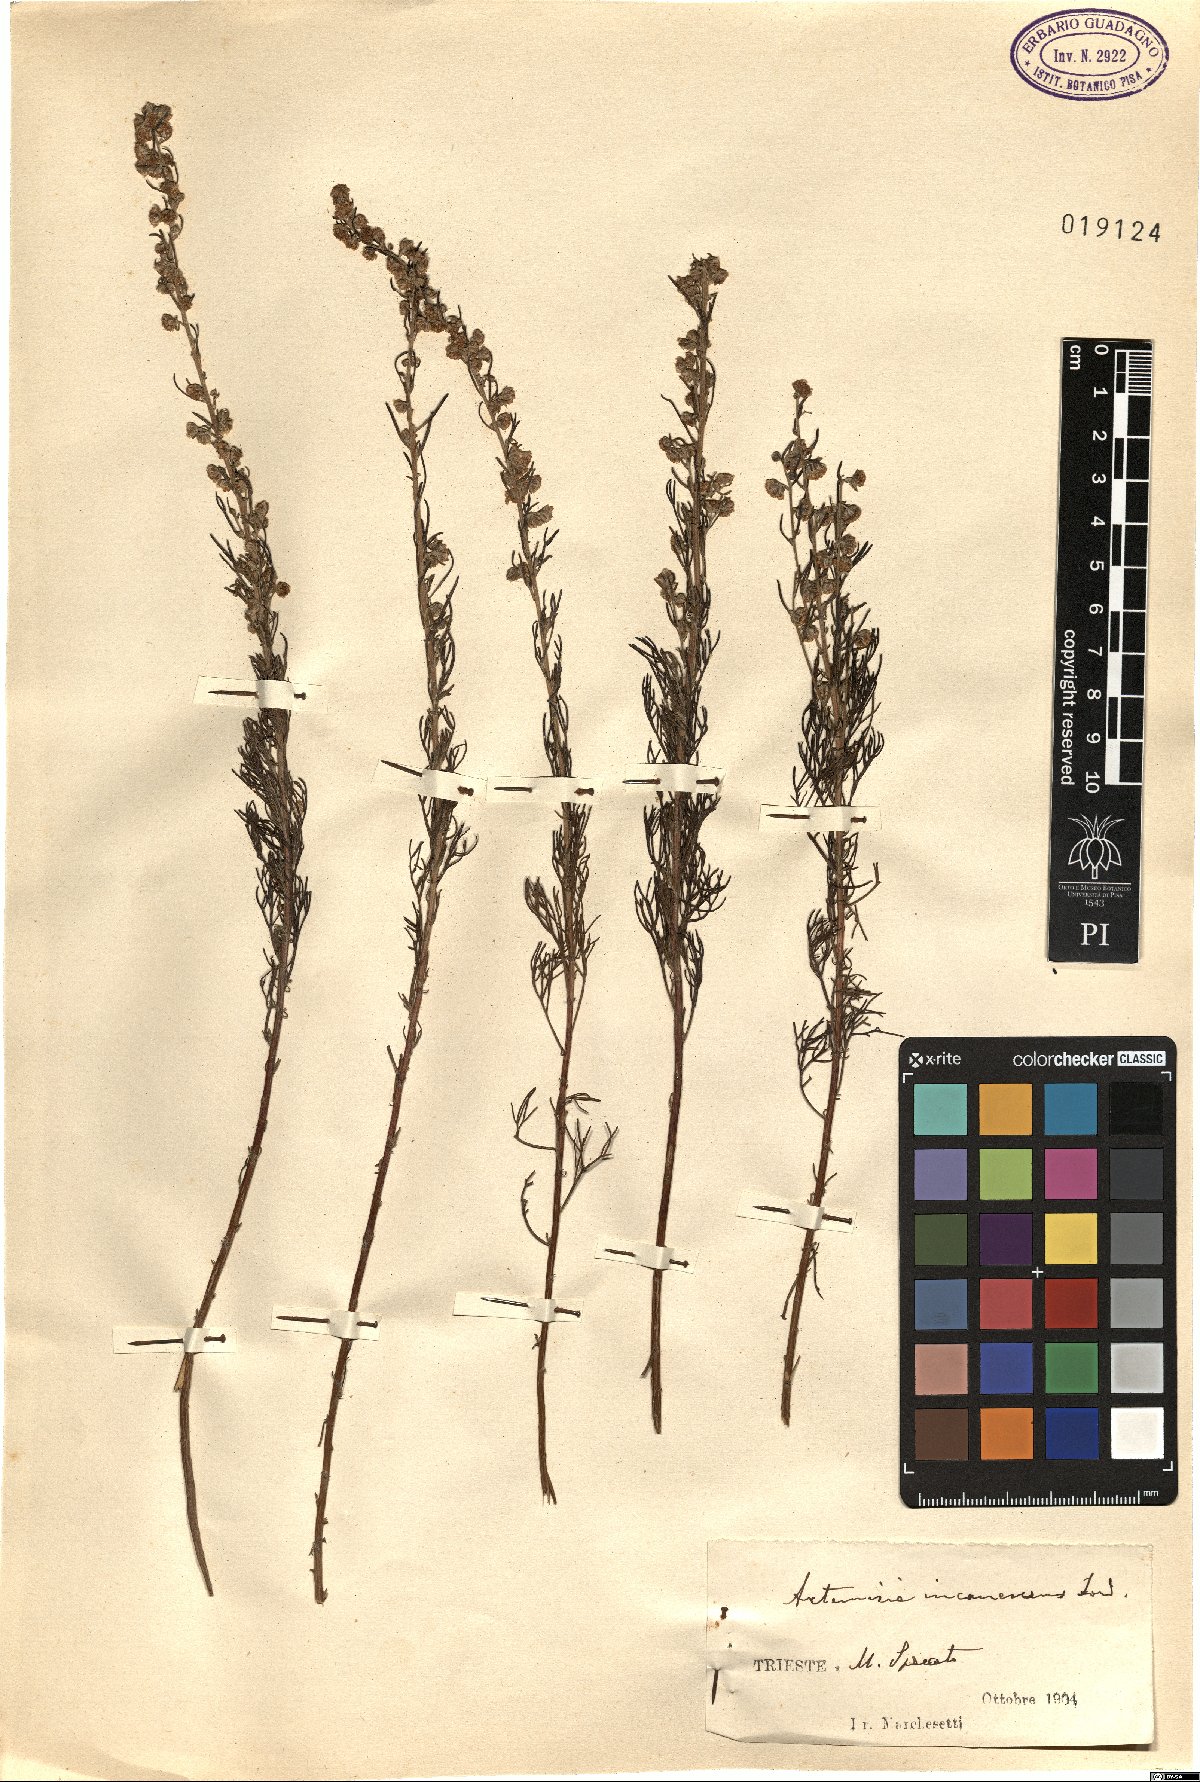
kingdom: Plantae
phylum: Tracheophyta
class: Magnoliopsida
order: Asterales
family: Asteraceae
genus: Artemisia
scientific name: Artemisia alba
